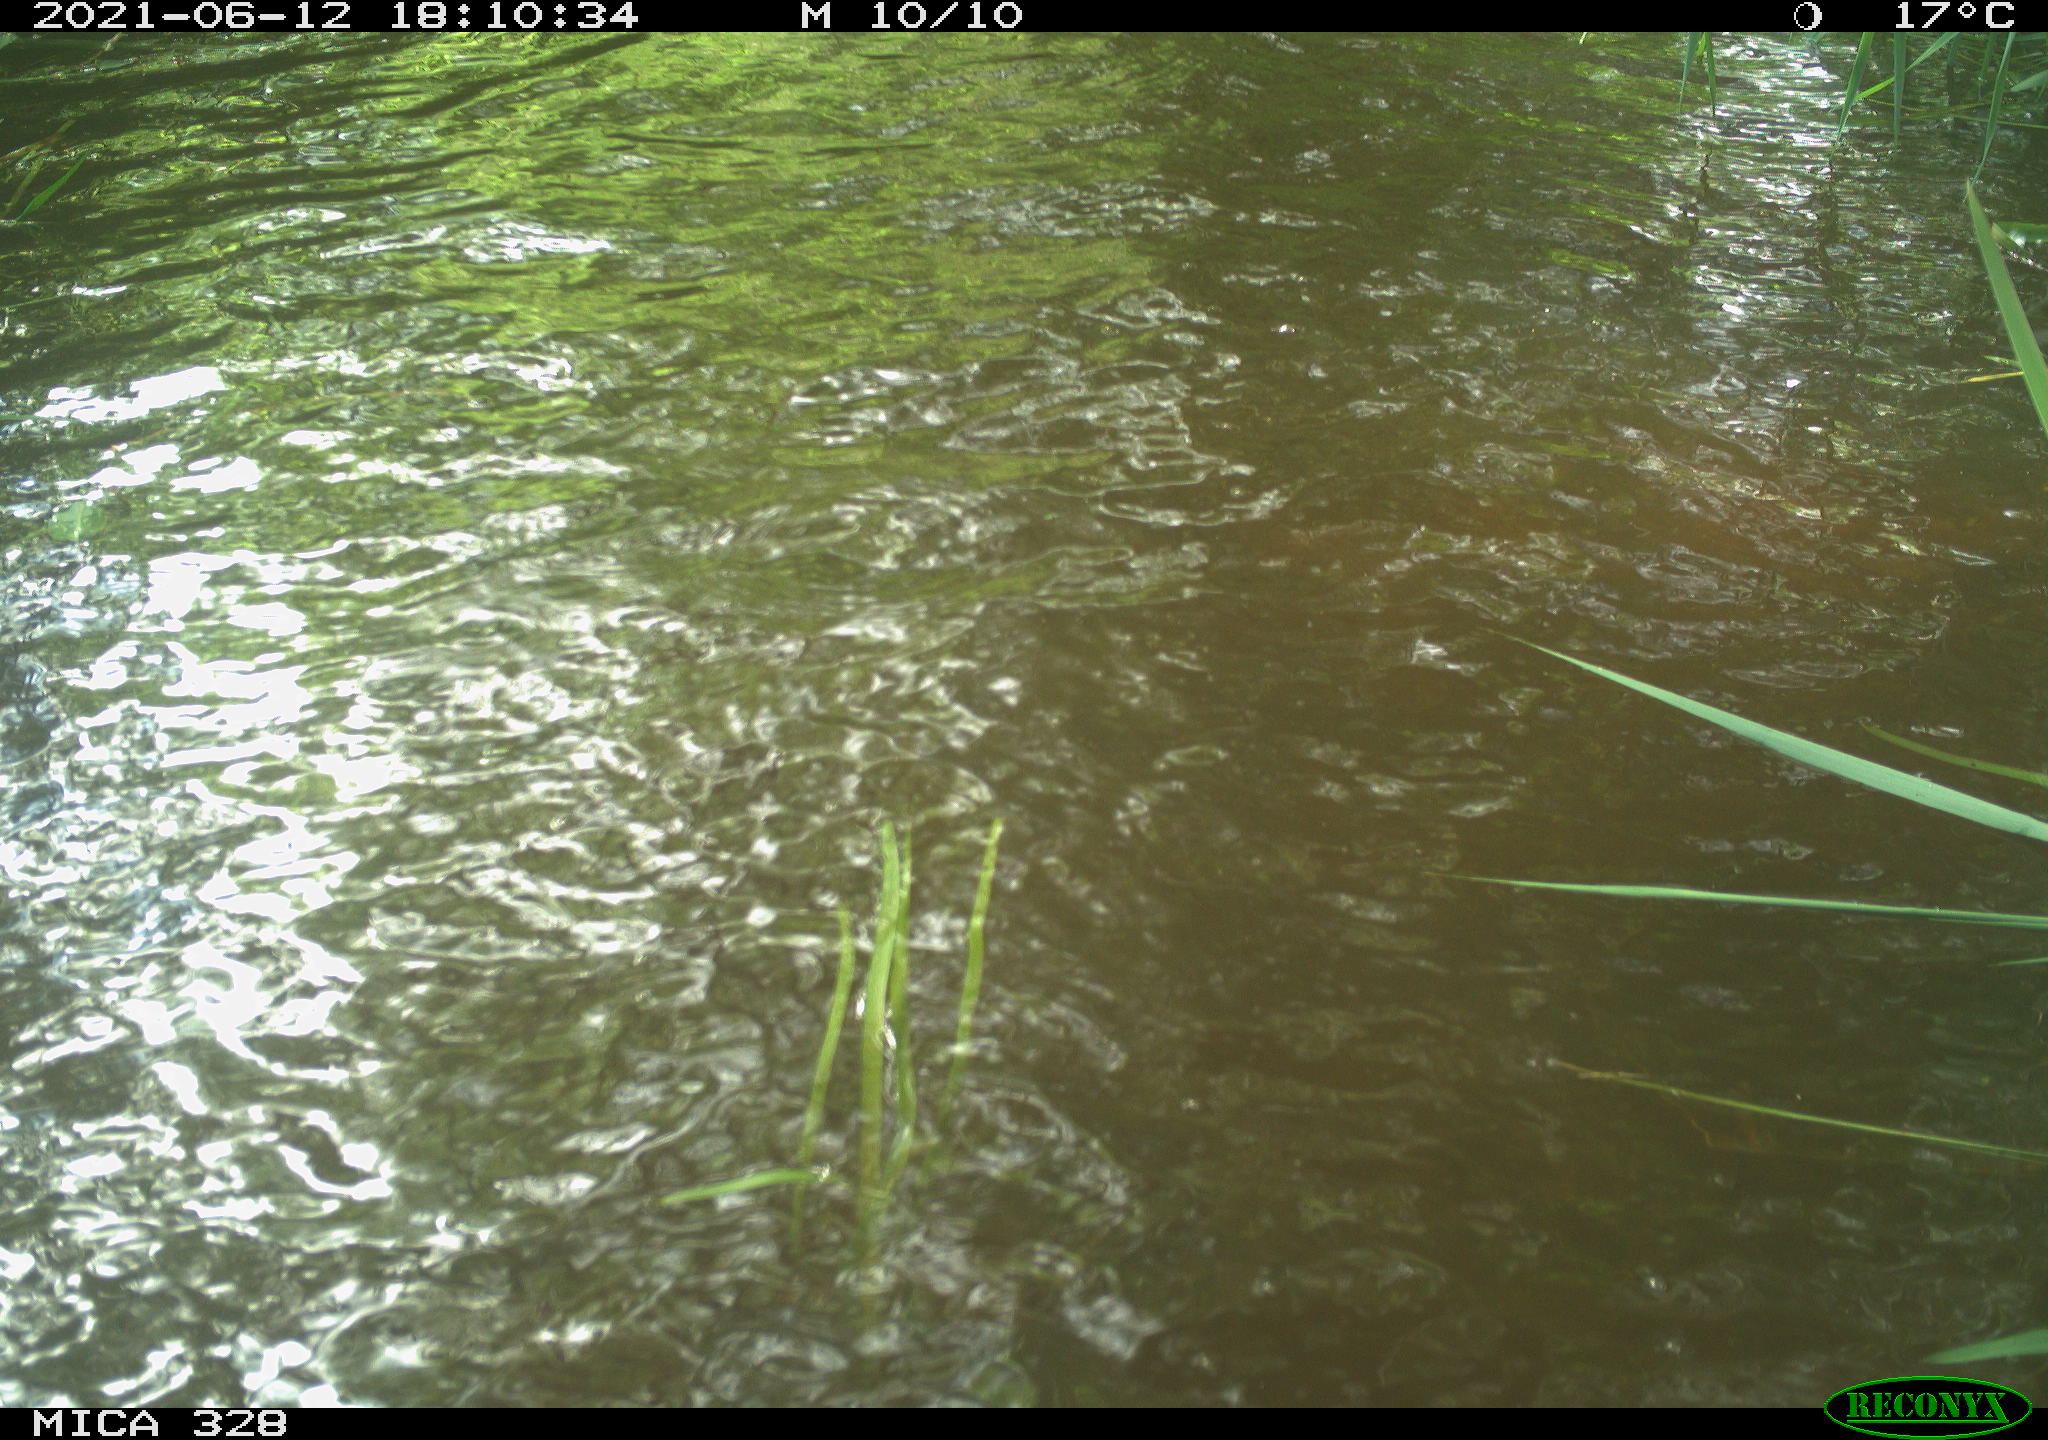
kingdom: Animalia
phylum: Chordata
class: Aves
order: Anseriformes
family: Anatidae
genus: Aix
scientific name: Aix galericulata
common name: Mandarin duck
